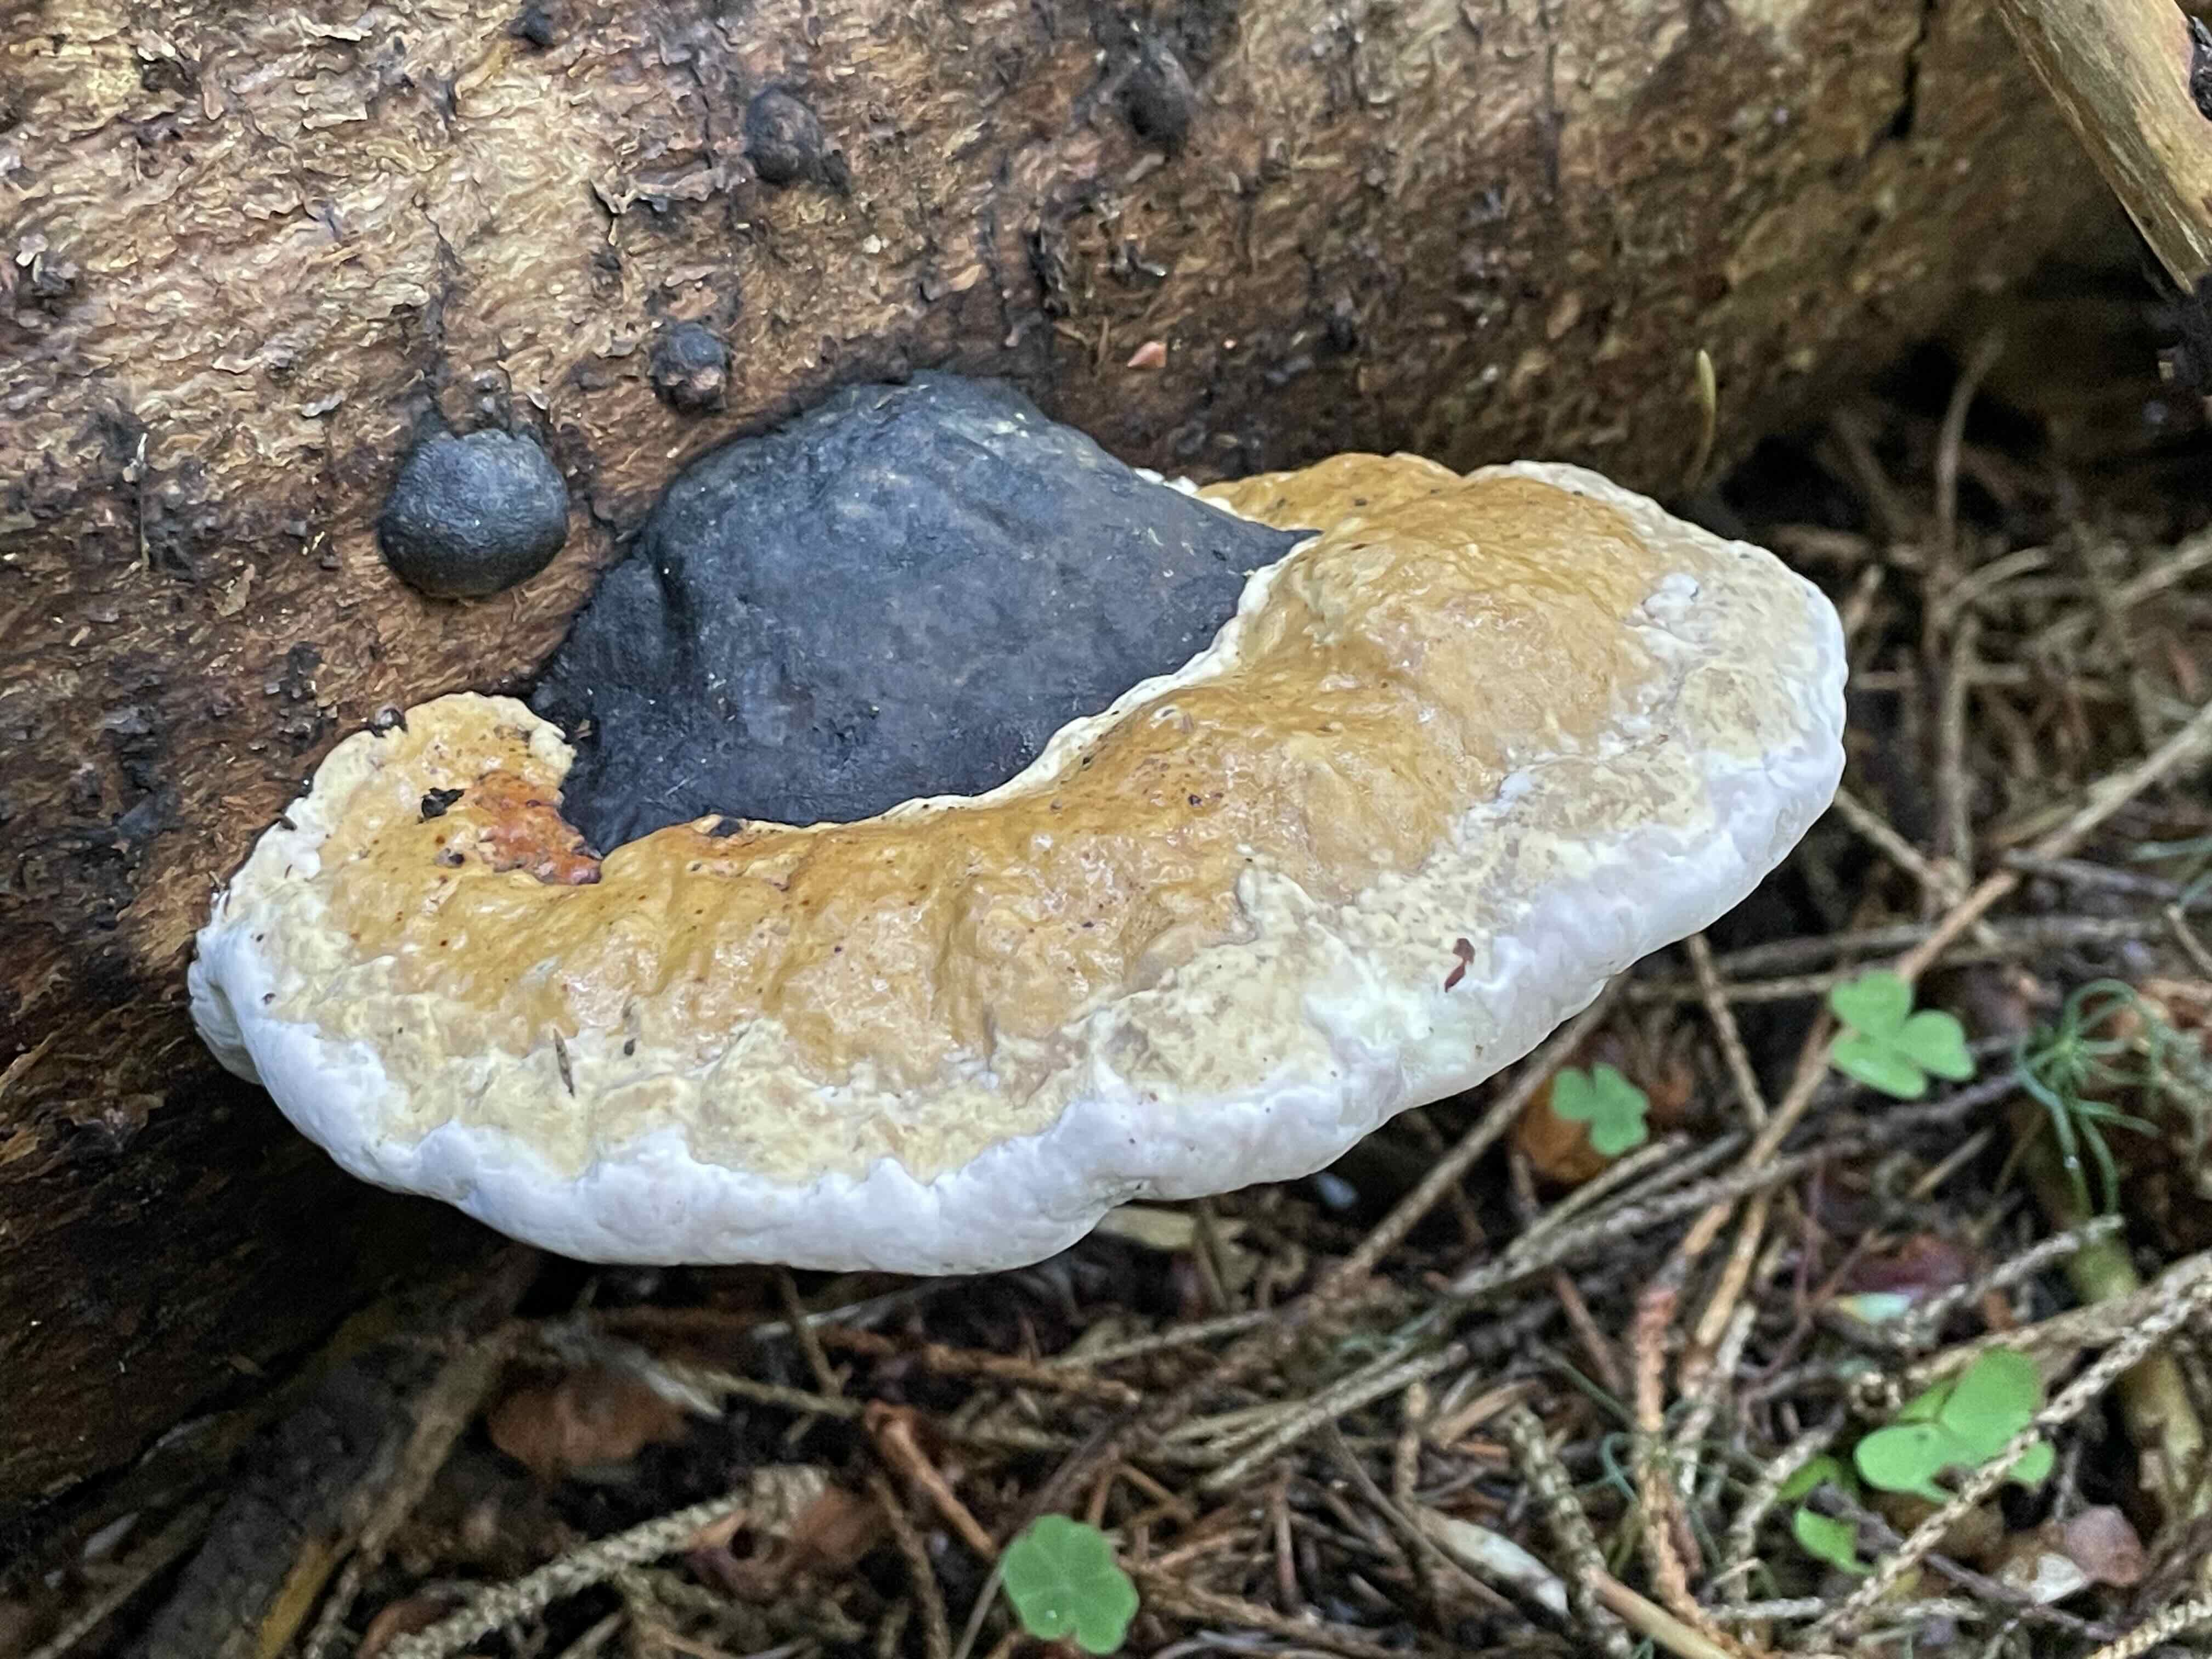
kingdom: Fungi
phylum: Basidiomycota
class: Agaricomycetes
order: Polyporales
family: Fomitopsidaceae
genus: Fomitopsis
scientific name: Fomitopsis pinicola
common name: randbæltet hovporesvamp
